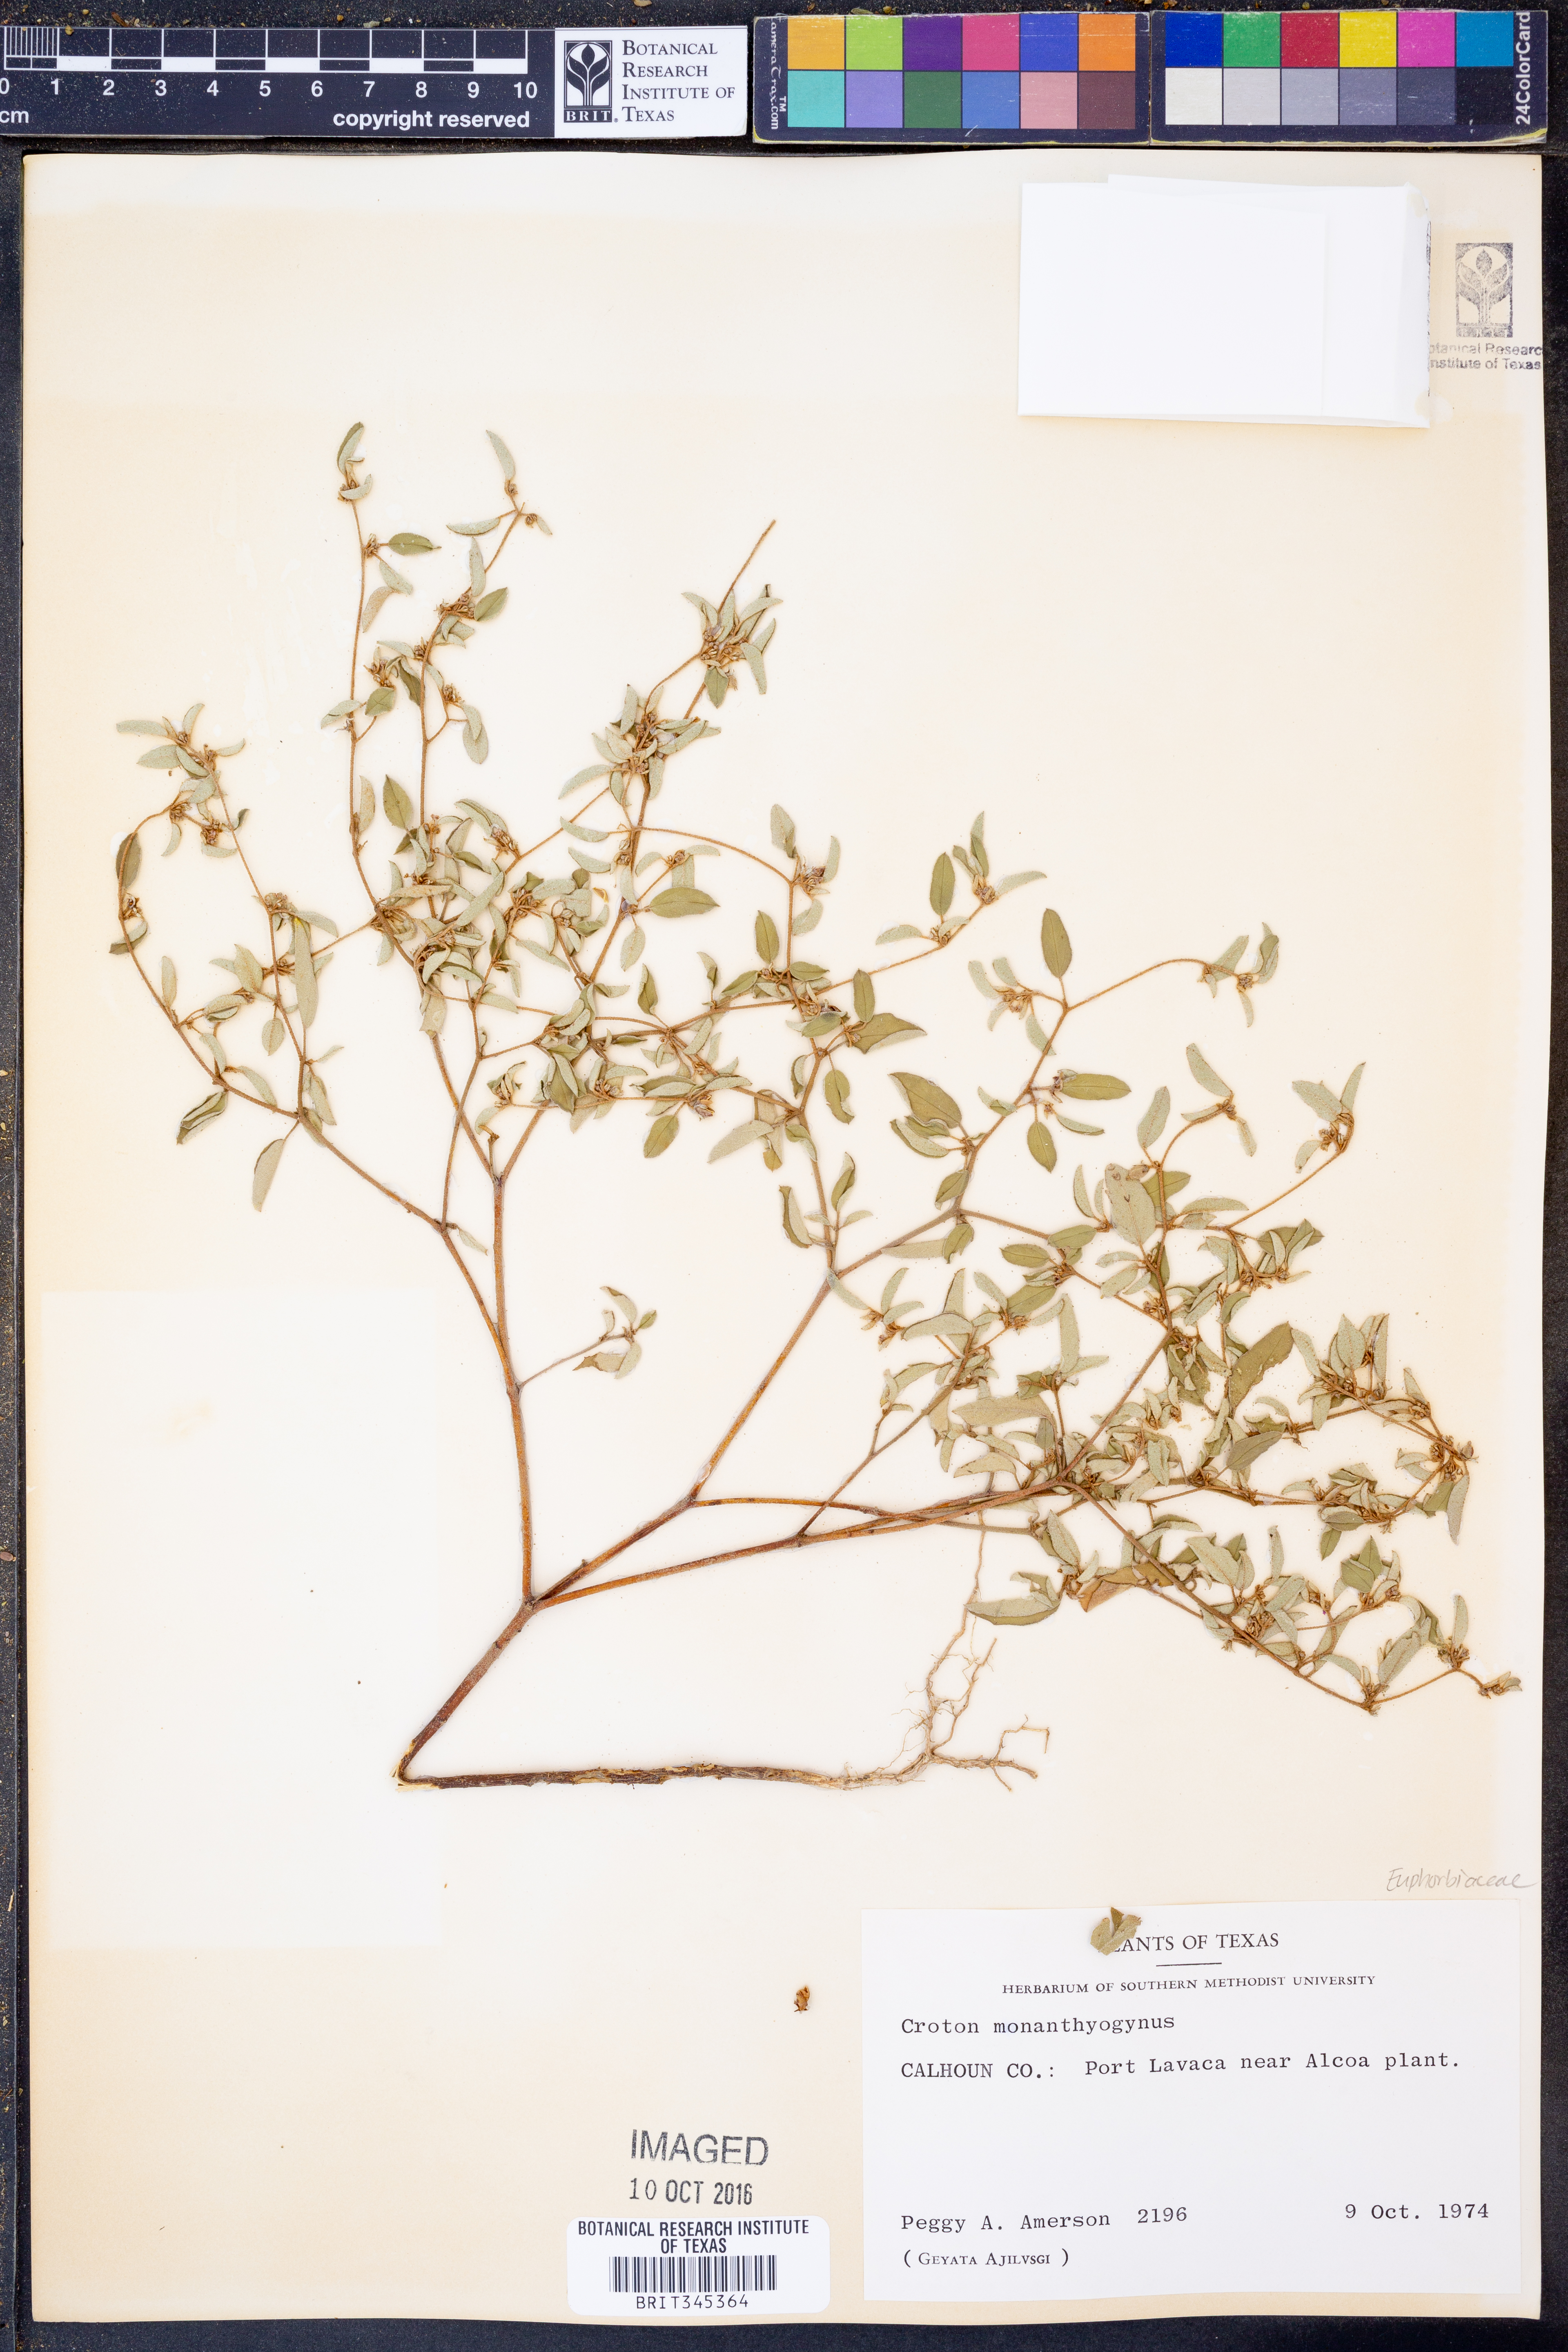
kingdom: Plantae
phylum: Tracheophyta
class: Magnoliopsida
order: Malpighiales
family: Euphorbiaceae
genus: Croton
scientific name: Croton monanthogynus
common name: One-seed croton
